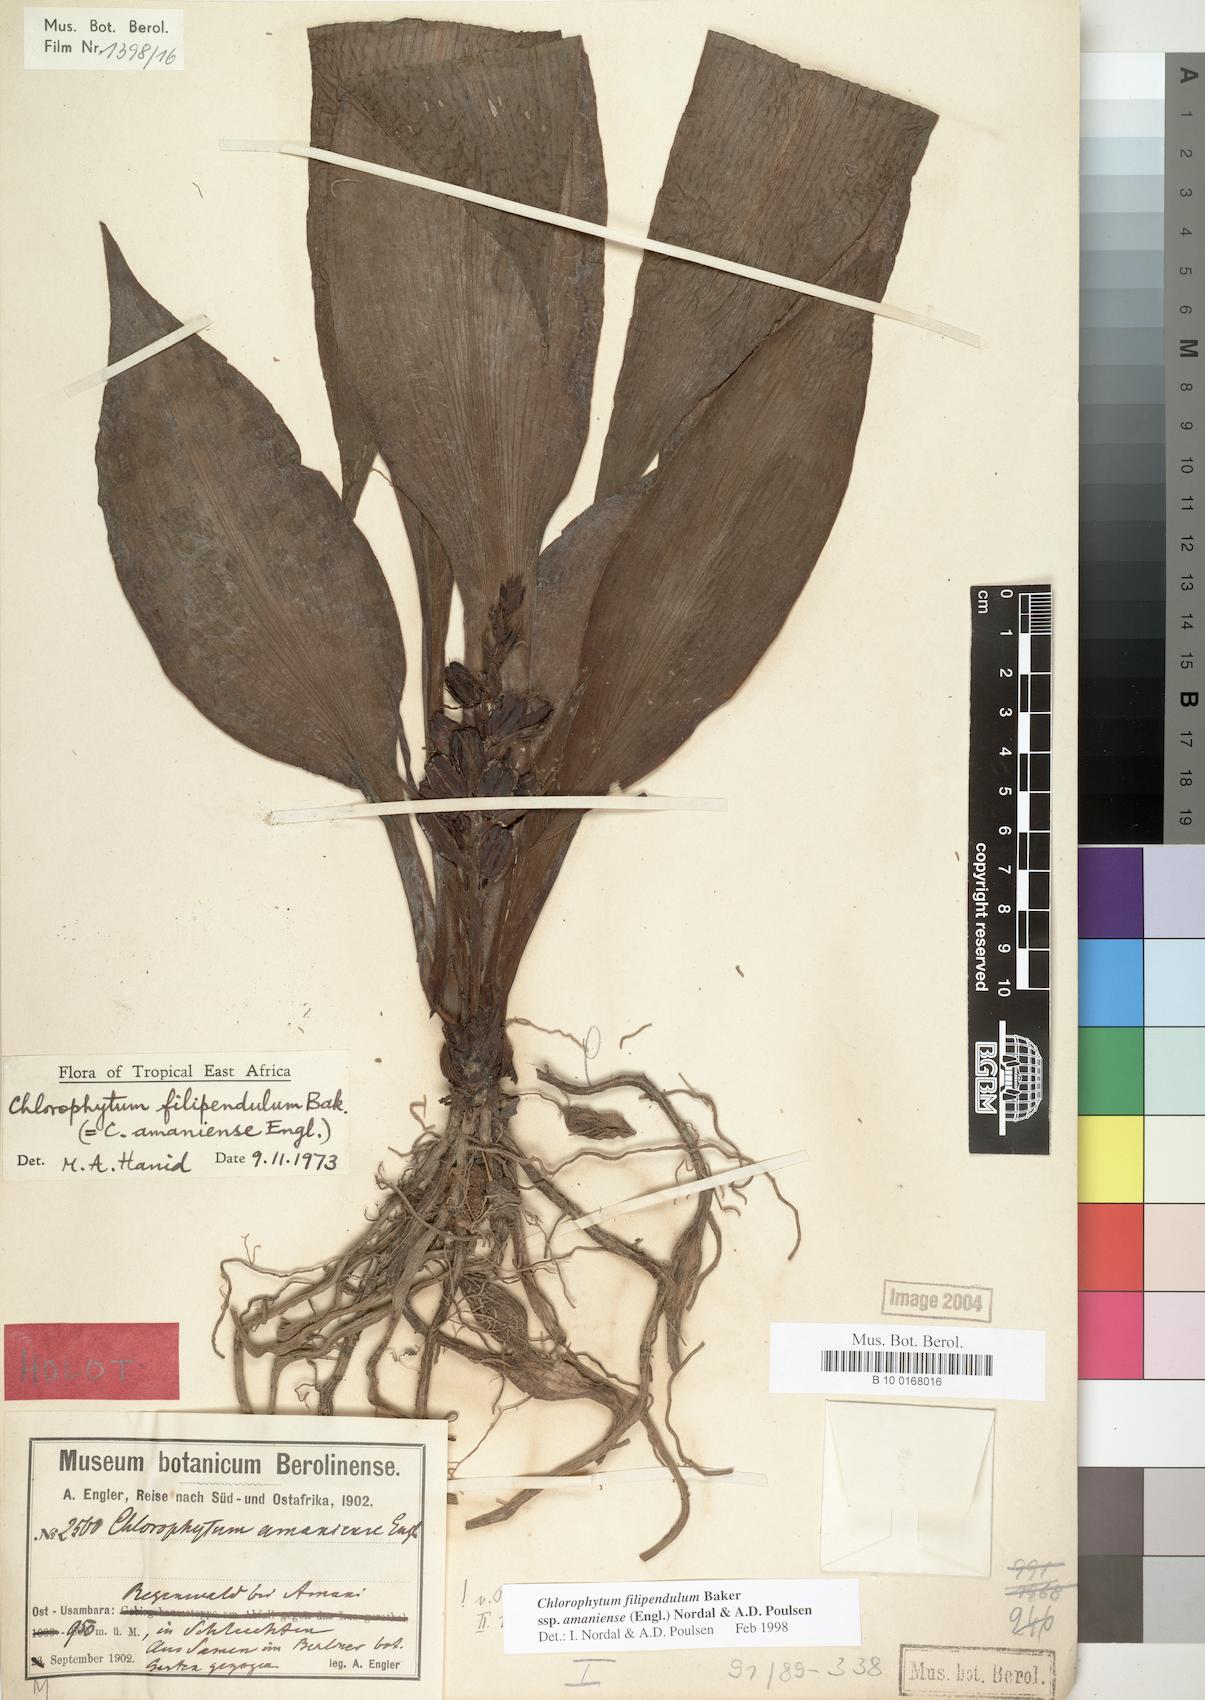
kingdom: Plantae
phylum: Tracheophyta
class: Liliopsida
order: Asparagales
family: Asparagaceae
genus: Chlorophytum
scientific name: Chlorophytum filipendulum
